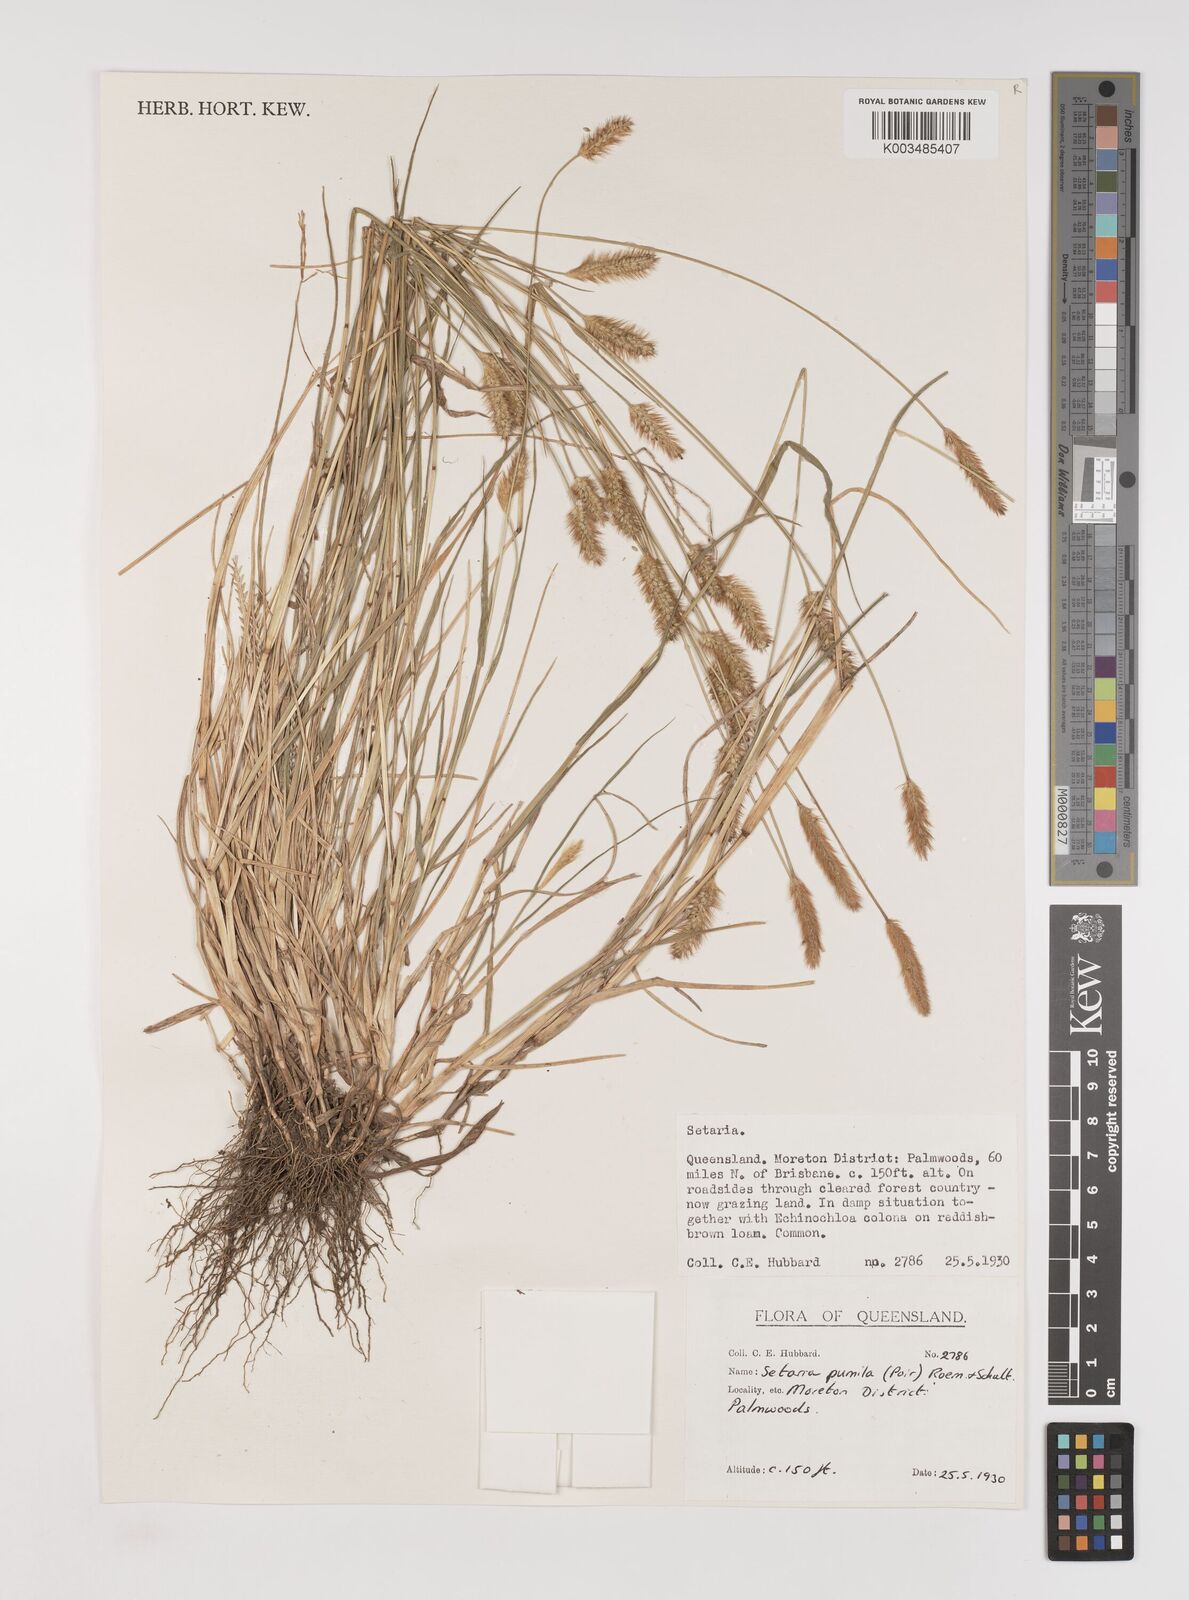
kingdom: Plantae
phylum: Tracheophyta
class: Liliopsida
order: Poales
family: Poaceae
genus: Setaria
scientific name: Setaria pumila
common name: Yellow bristle-grass
